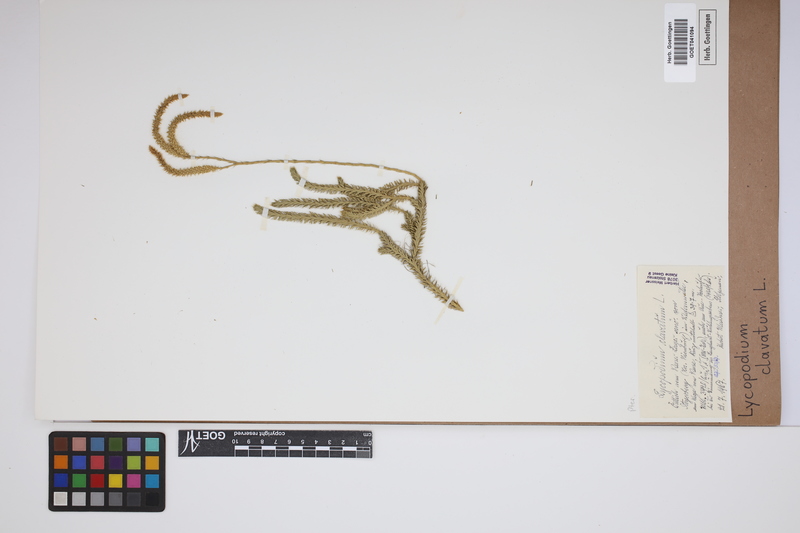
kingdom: Plantae
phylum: Tracheophyta
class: Lycopodiopsida
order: Lycopodiales
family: Lycopodiaceae
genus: Lycopodium
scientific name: Lycopodium clavatum
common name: Stag's-horn clubmoss
